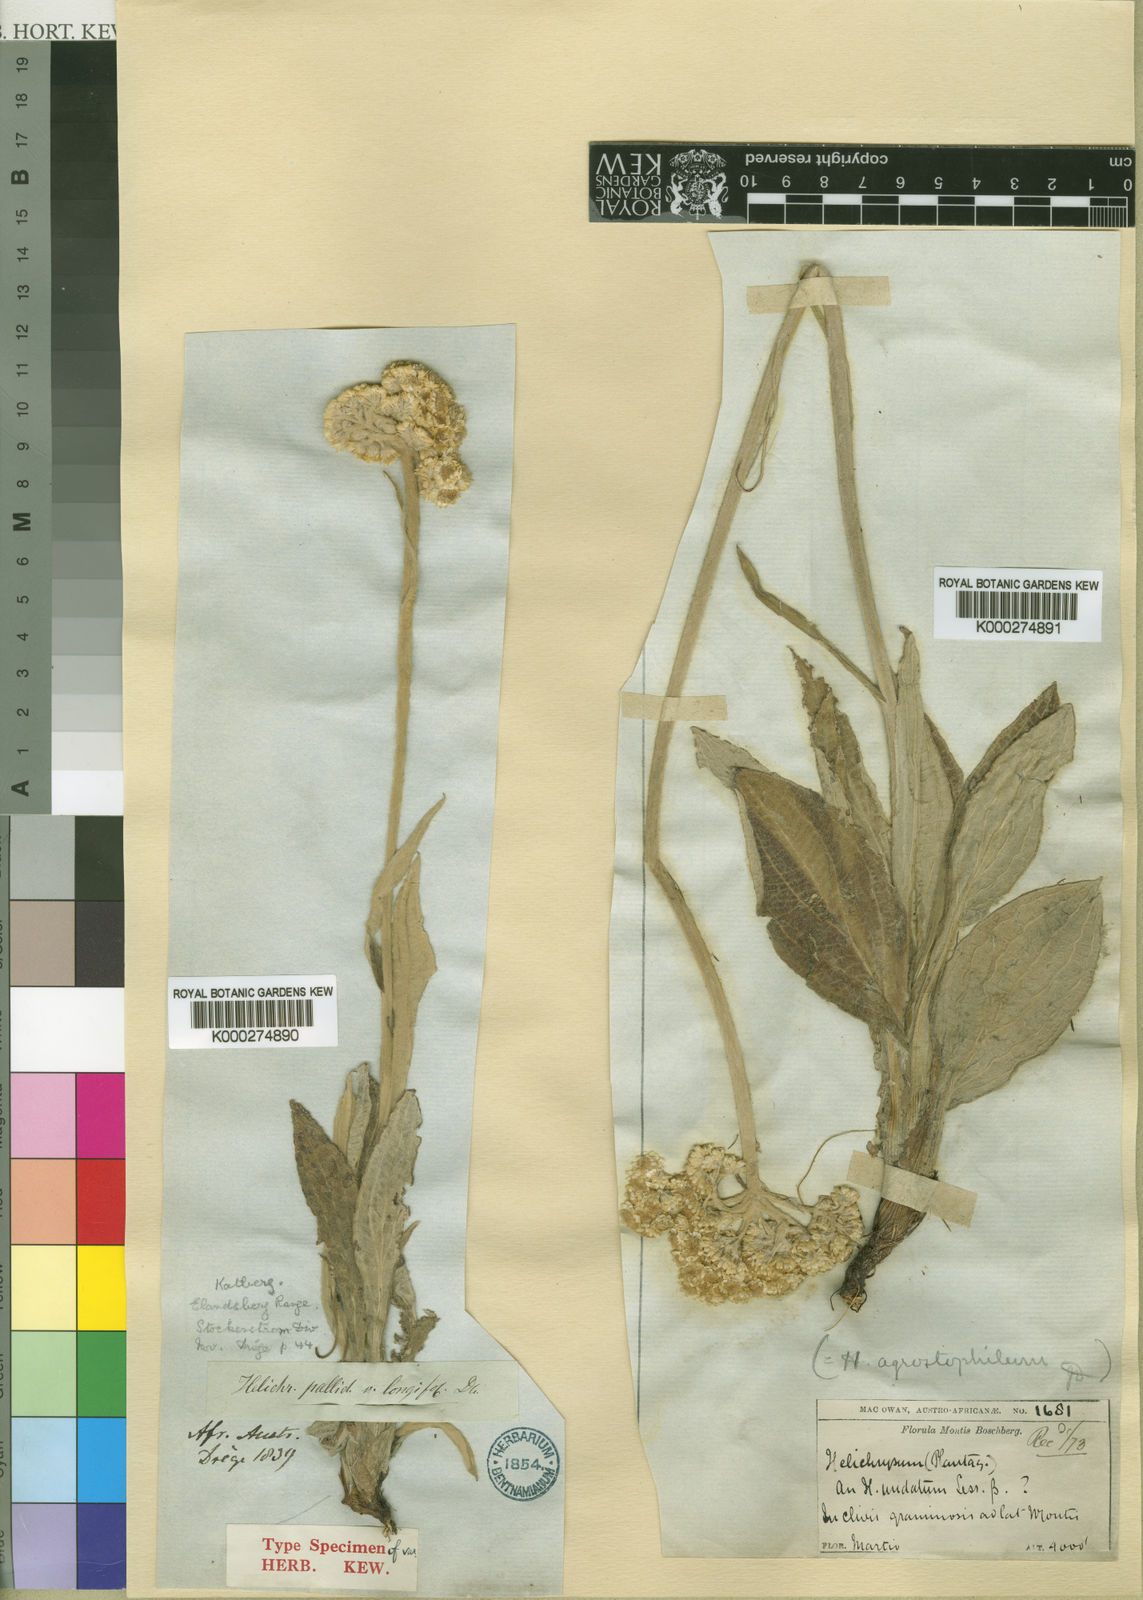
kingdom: Plantae
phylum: Tracheophyta
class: Magnoliopsida
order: Asterales
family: Asteraceae
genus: Helichrysum
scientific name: Helichrysum pallidum
